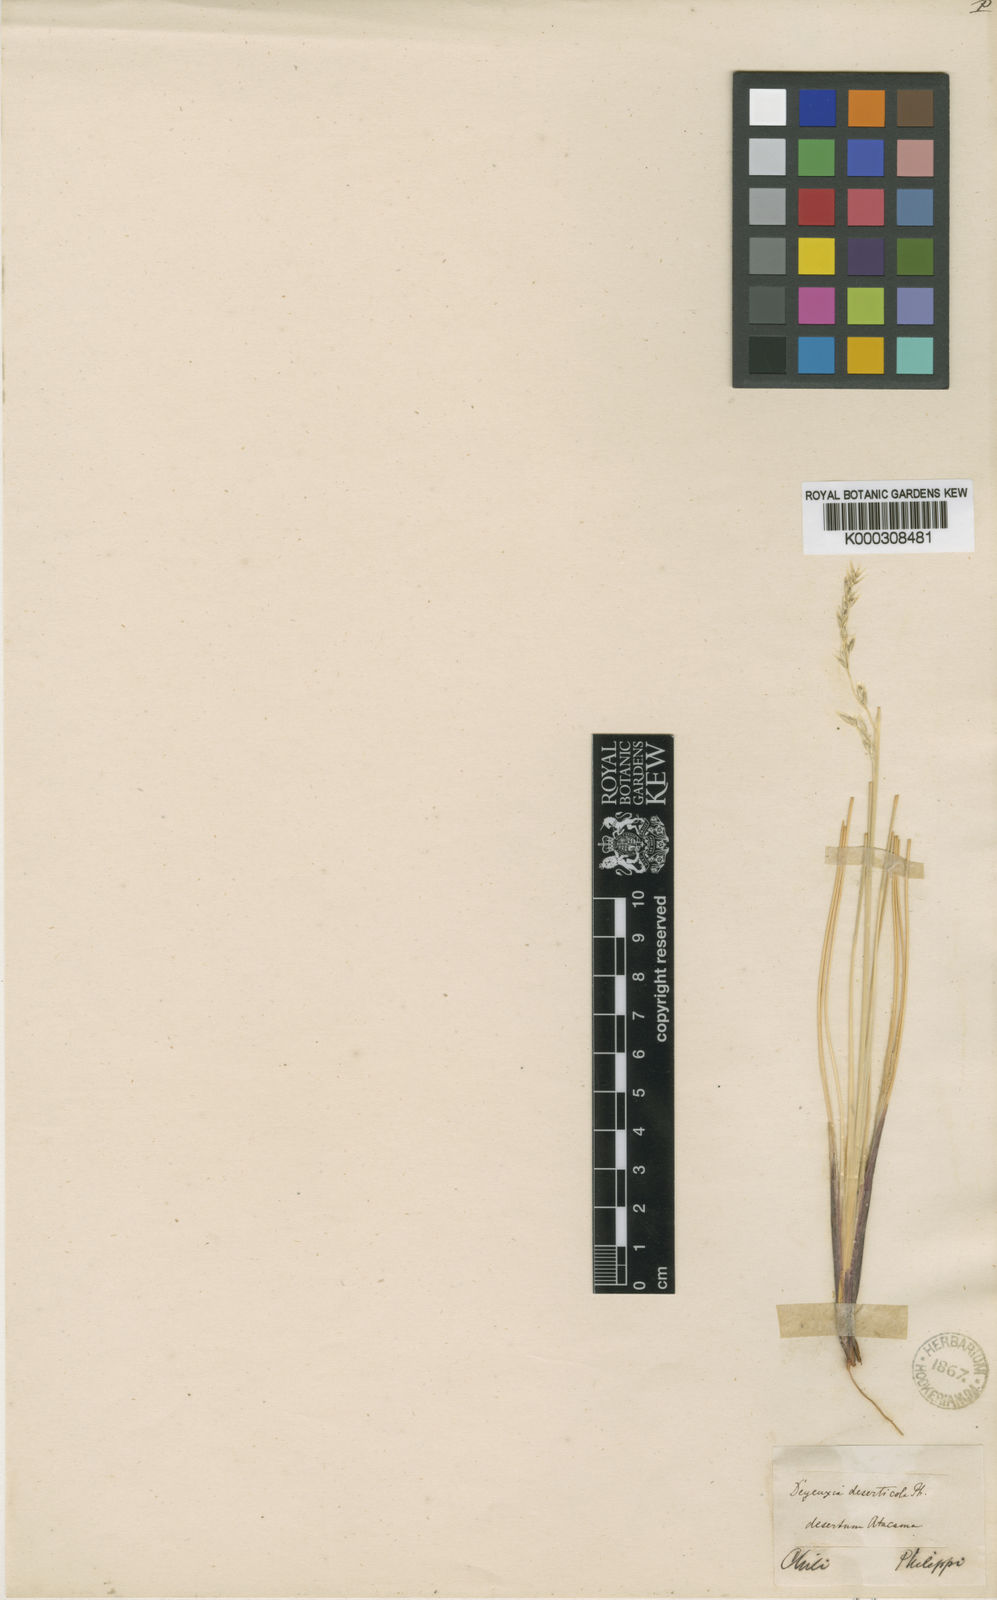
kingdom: Plantae
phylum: Tracheophyta
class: Liliopsida
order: Poales
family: Poaceae
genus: Cinnagrostis
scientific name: Cinnagrostis deserticola
